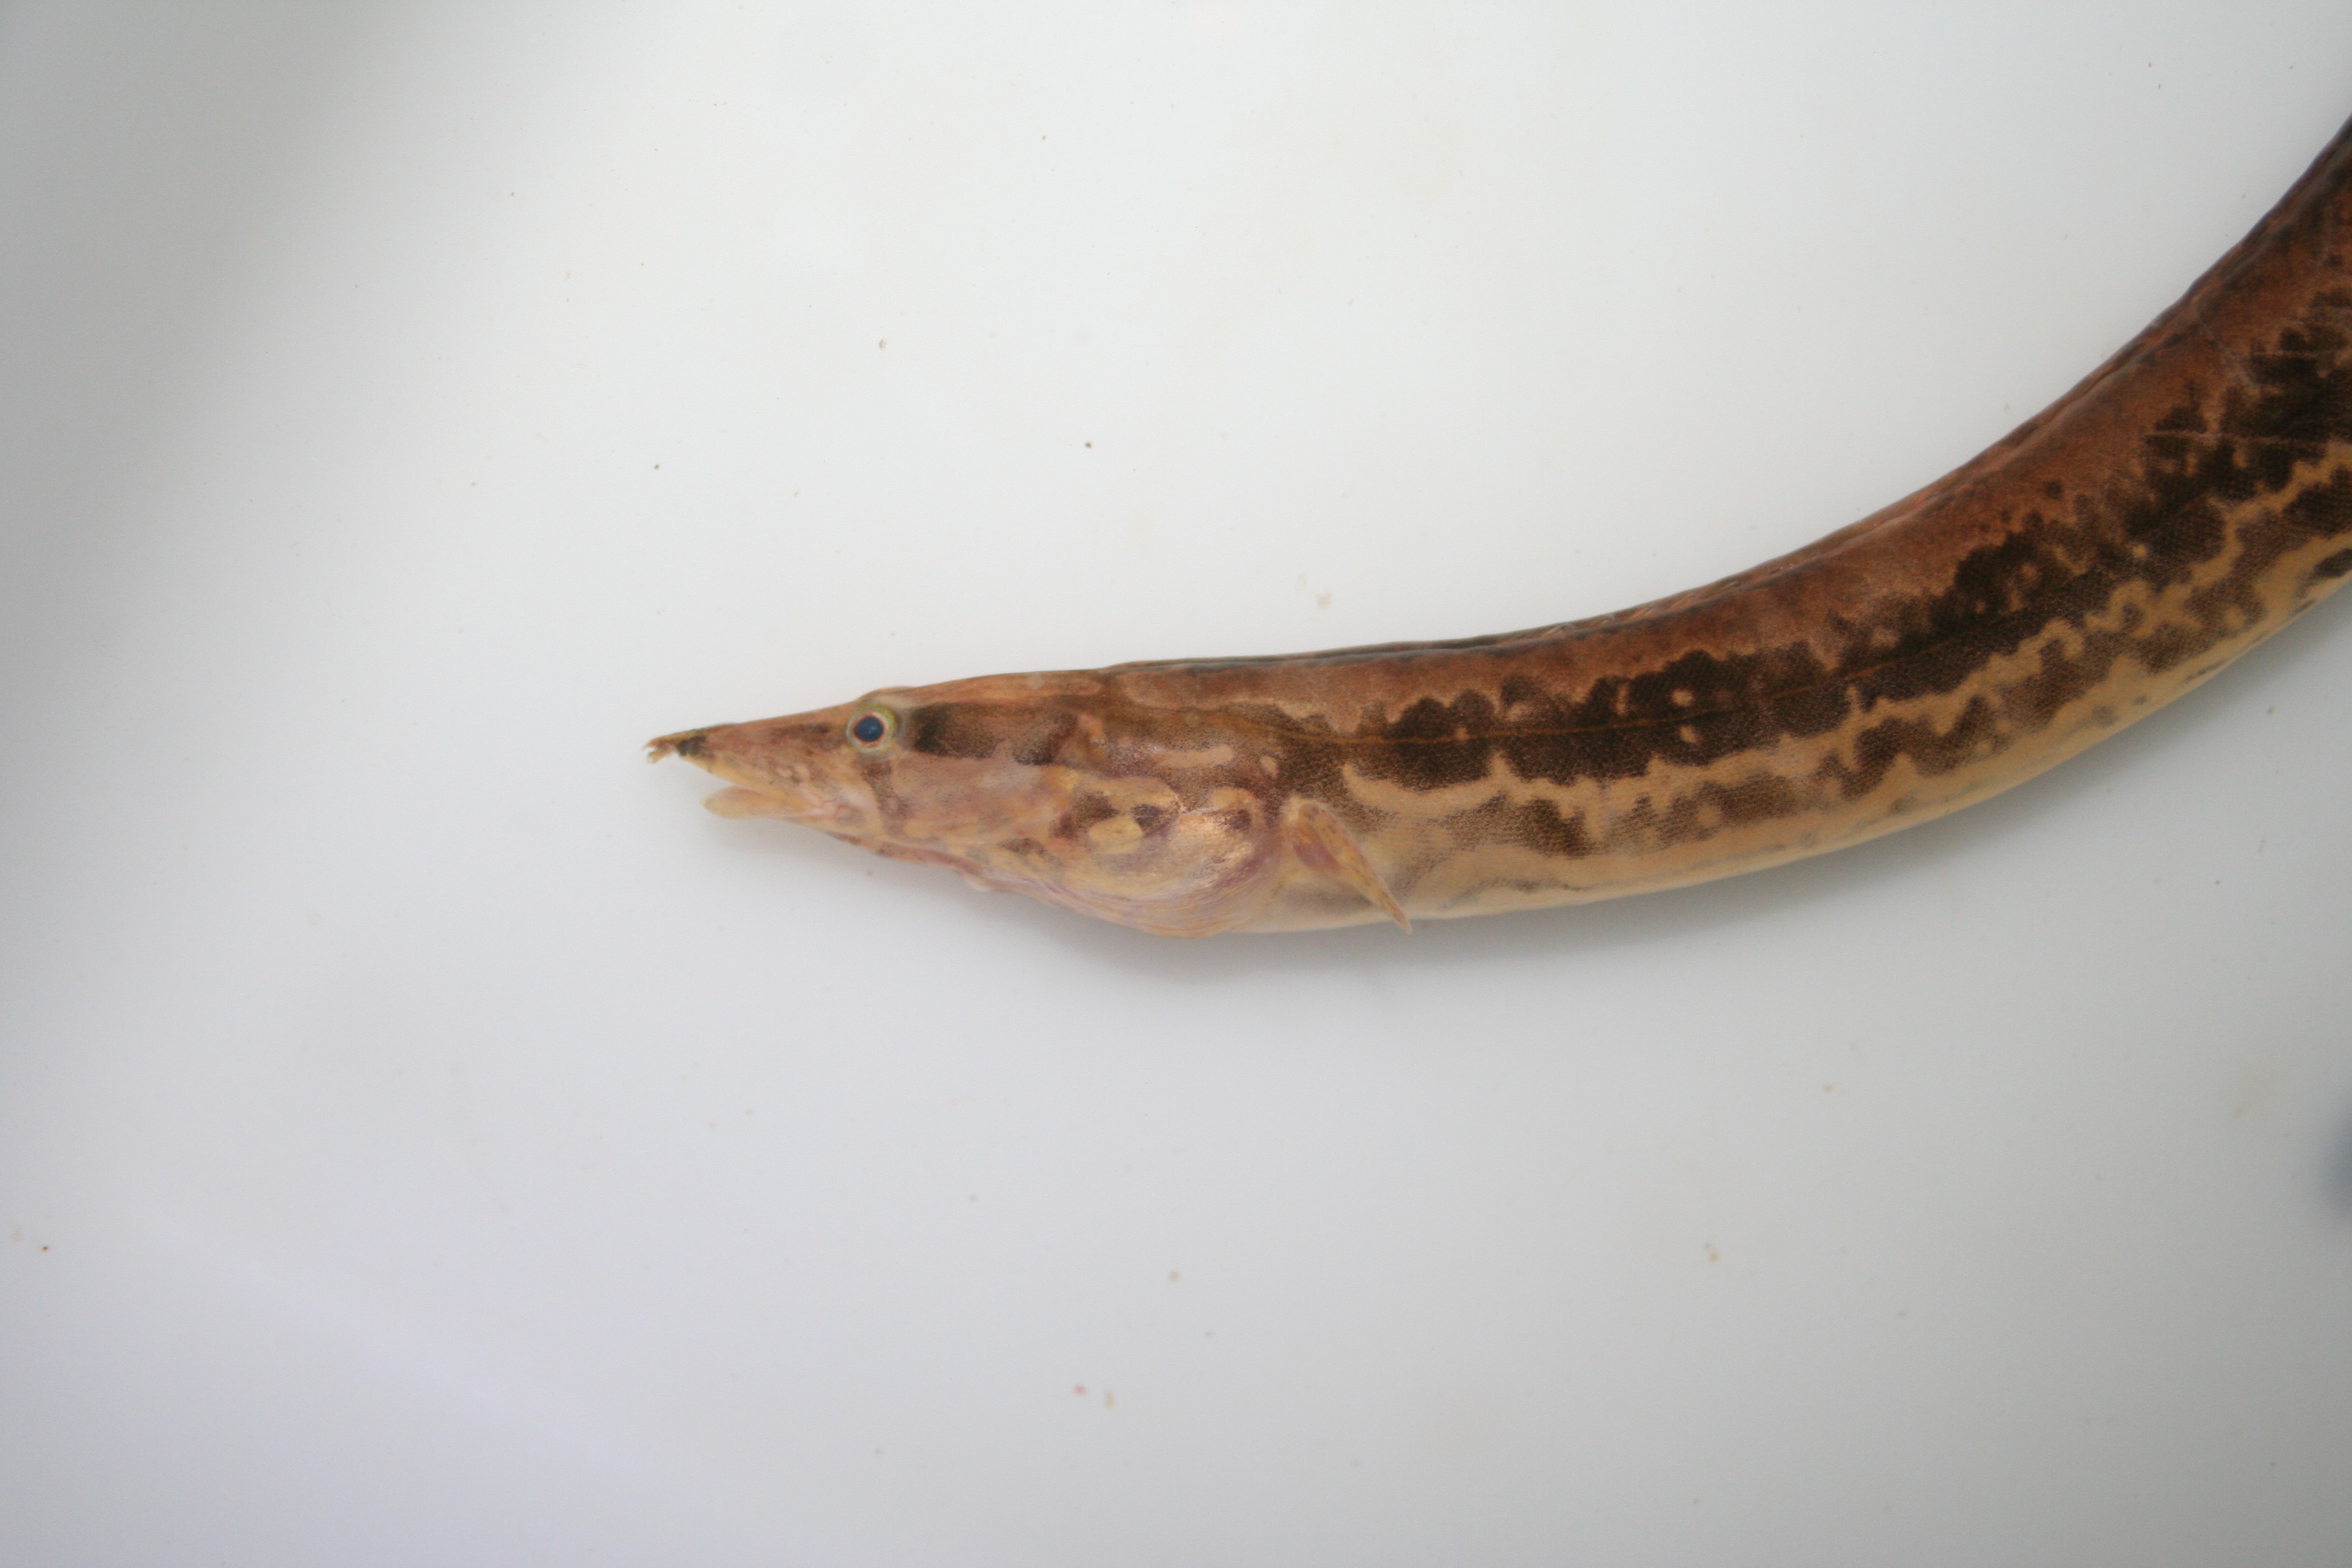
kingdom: Animalia
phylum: Chordata
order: Synbranchiformes
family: Mastacembelidae
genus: Mastacembelus
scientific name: Mastacembelus ansorgii
